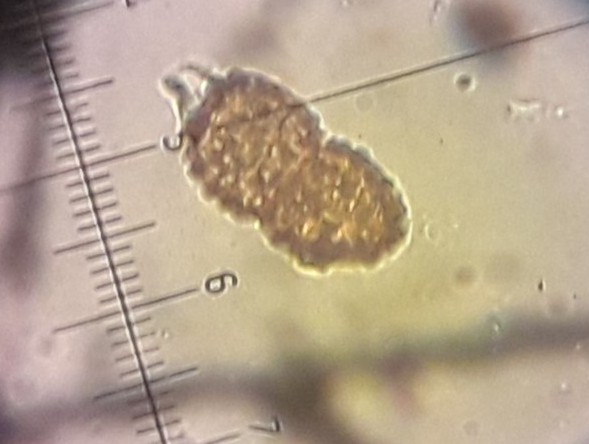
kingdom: Fungi
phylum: Basidiomycota
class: Pucciniomycetes
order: Pucciniales
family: Tranzscheliaceae
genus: Tranzschelia
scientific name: Tranzschelia anemones
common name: anemone-knæksporerust
